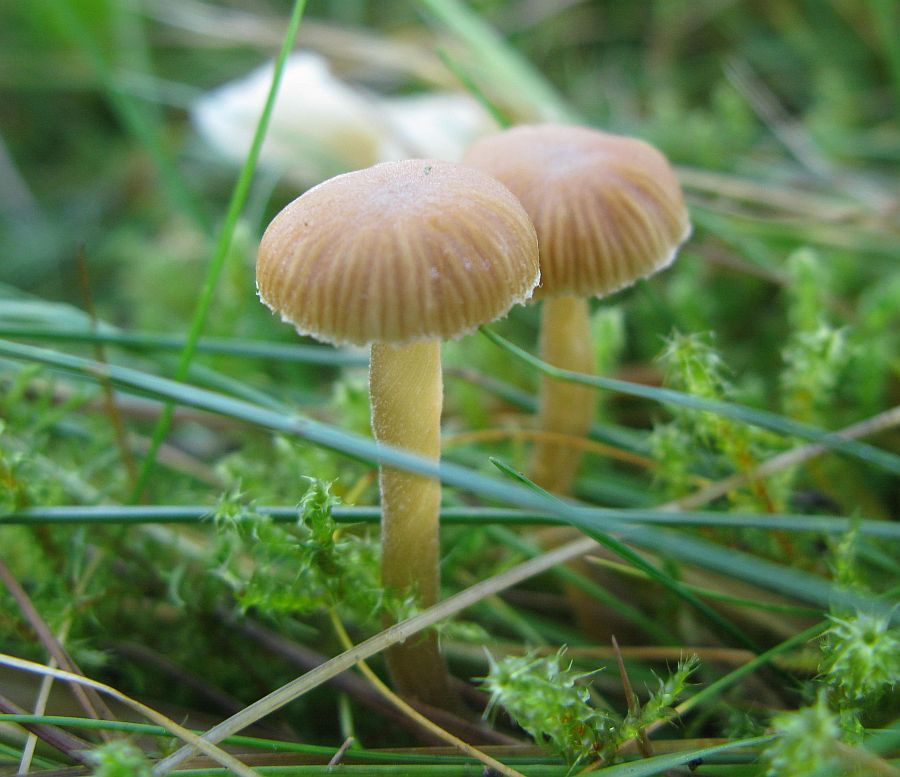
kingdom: Fungi
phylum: Basidiomycota
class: Agaricomycetes
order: Agaricales
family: Hymenogastraceae
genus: Galerina
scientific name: Galerina vittiformis
